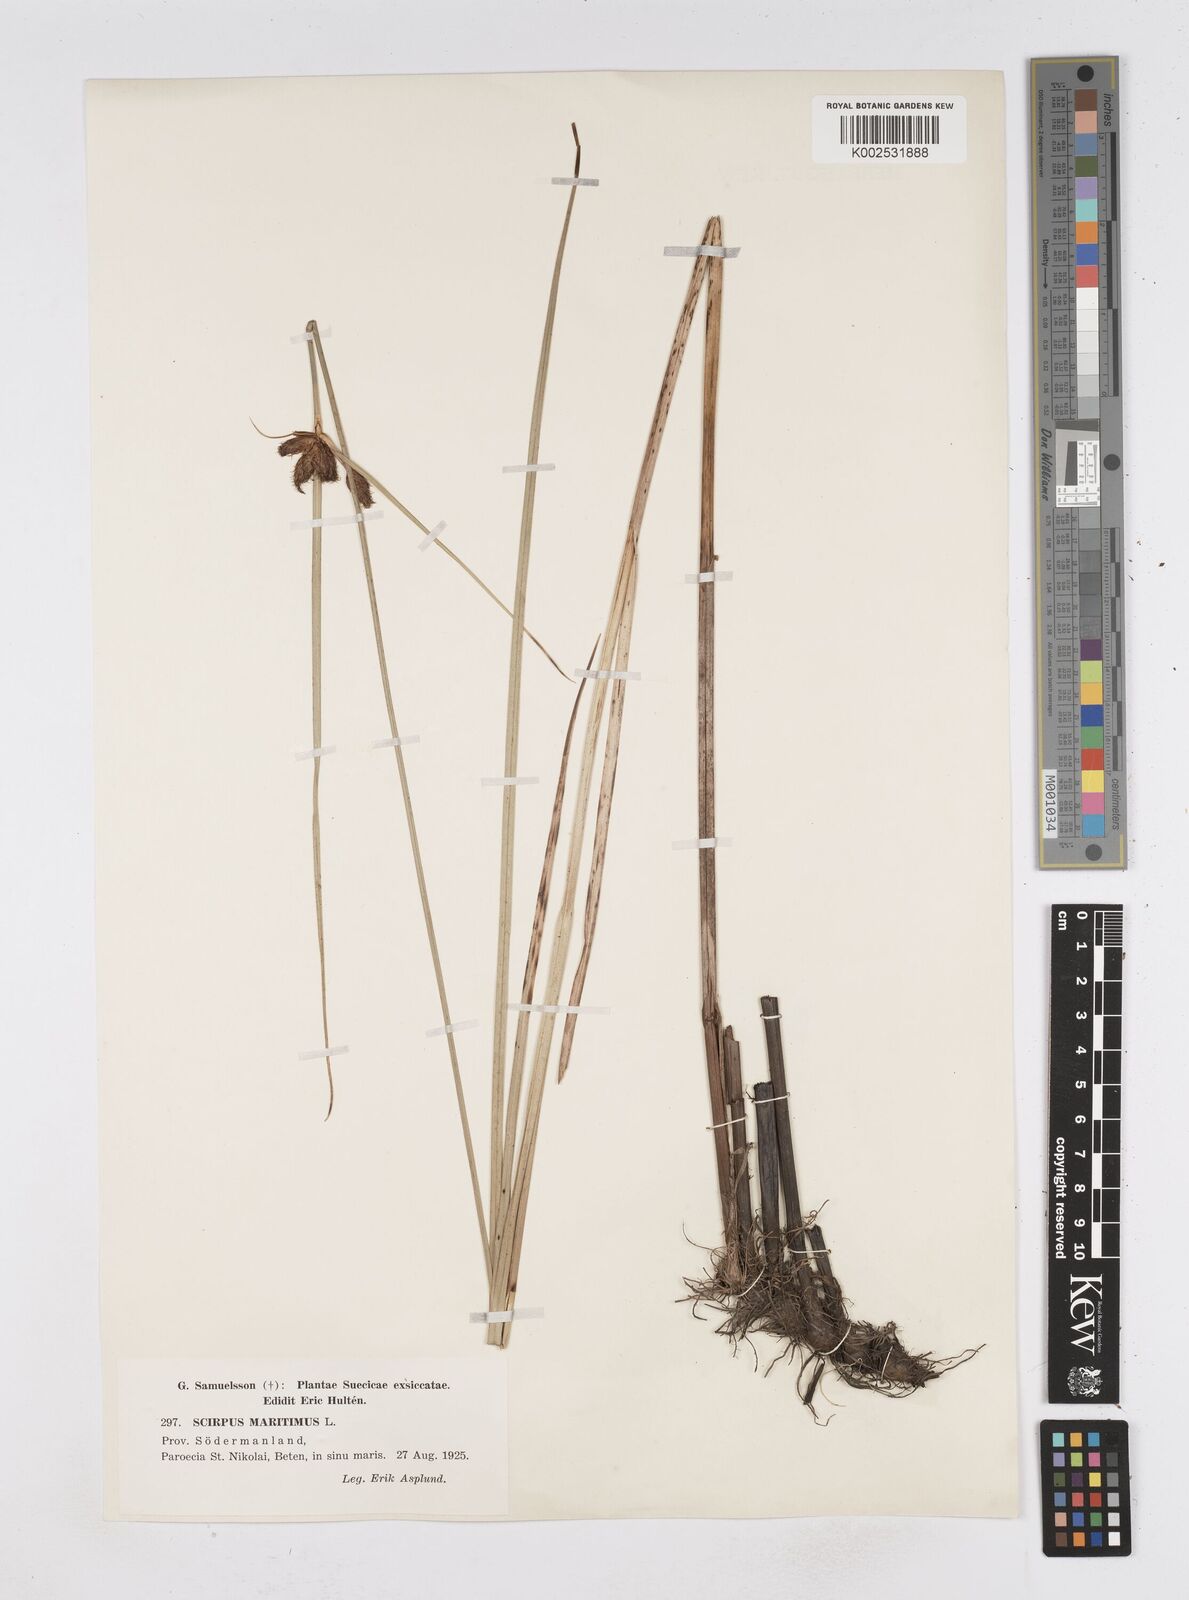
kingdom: Plantae
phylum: Tracheophyta
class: Liliopsida
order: Poales
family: Cyperaceae
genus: Bolboschoenus
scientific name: Bolboschoenus maritimus
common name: Sea club-rush
